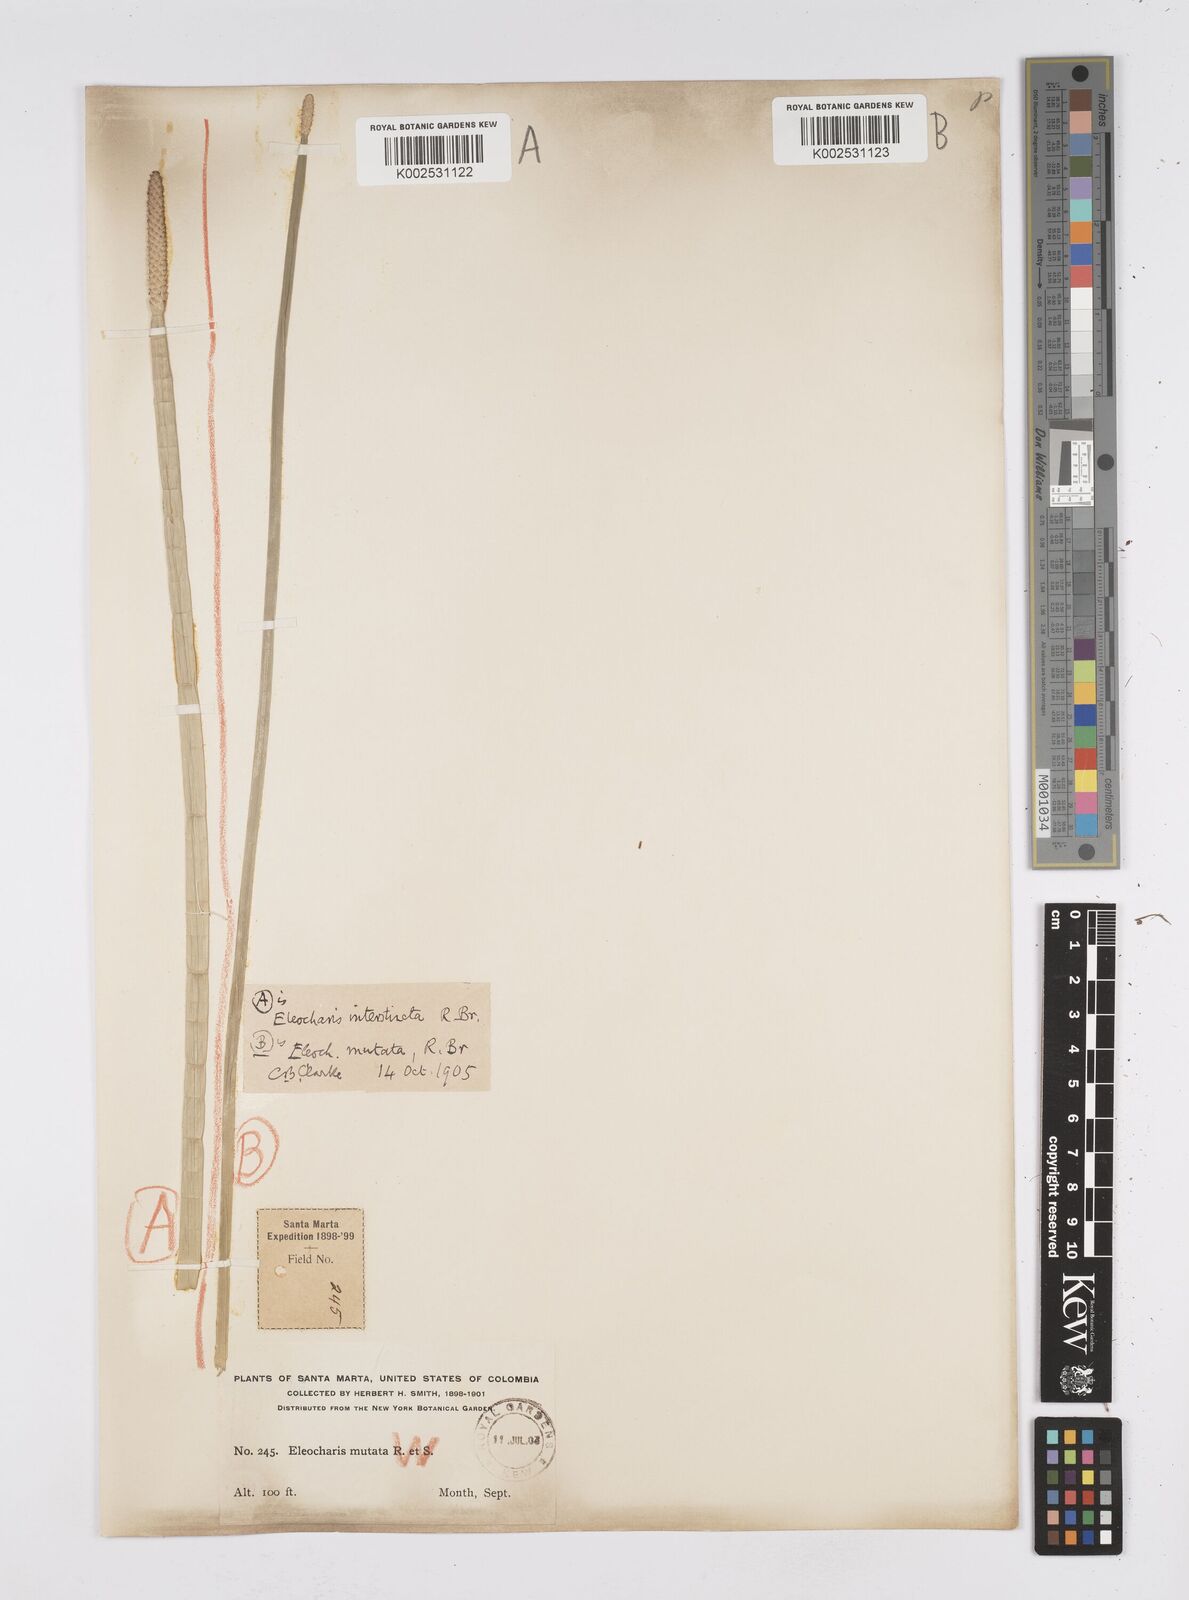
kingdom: Plantae
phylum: Tracheophyta
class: Liliopsida
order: Poales
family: Cyperaceae
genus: Eleocharis
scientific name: Eleocharis interstincta
